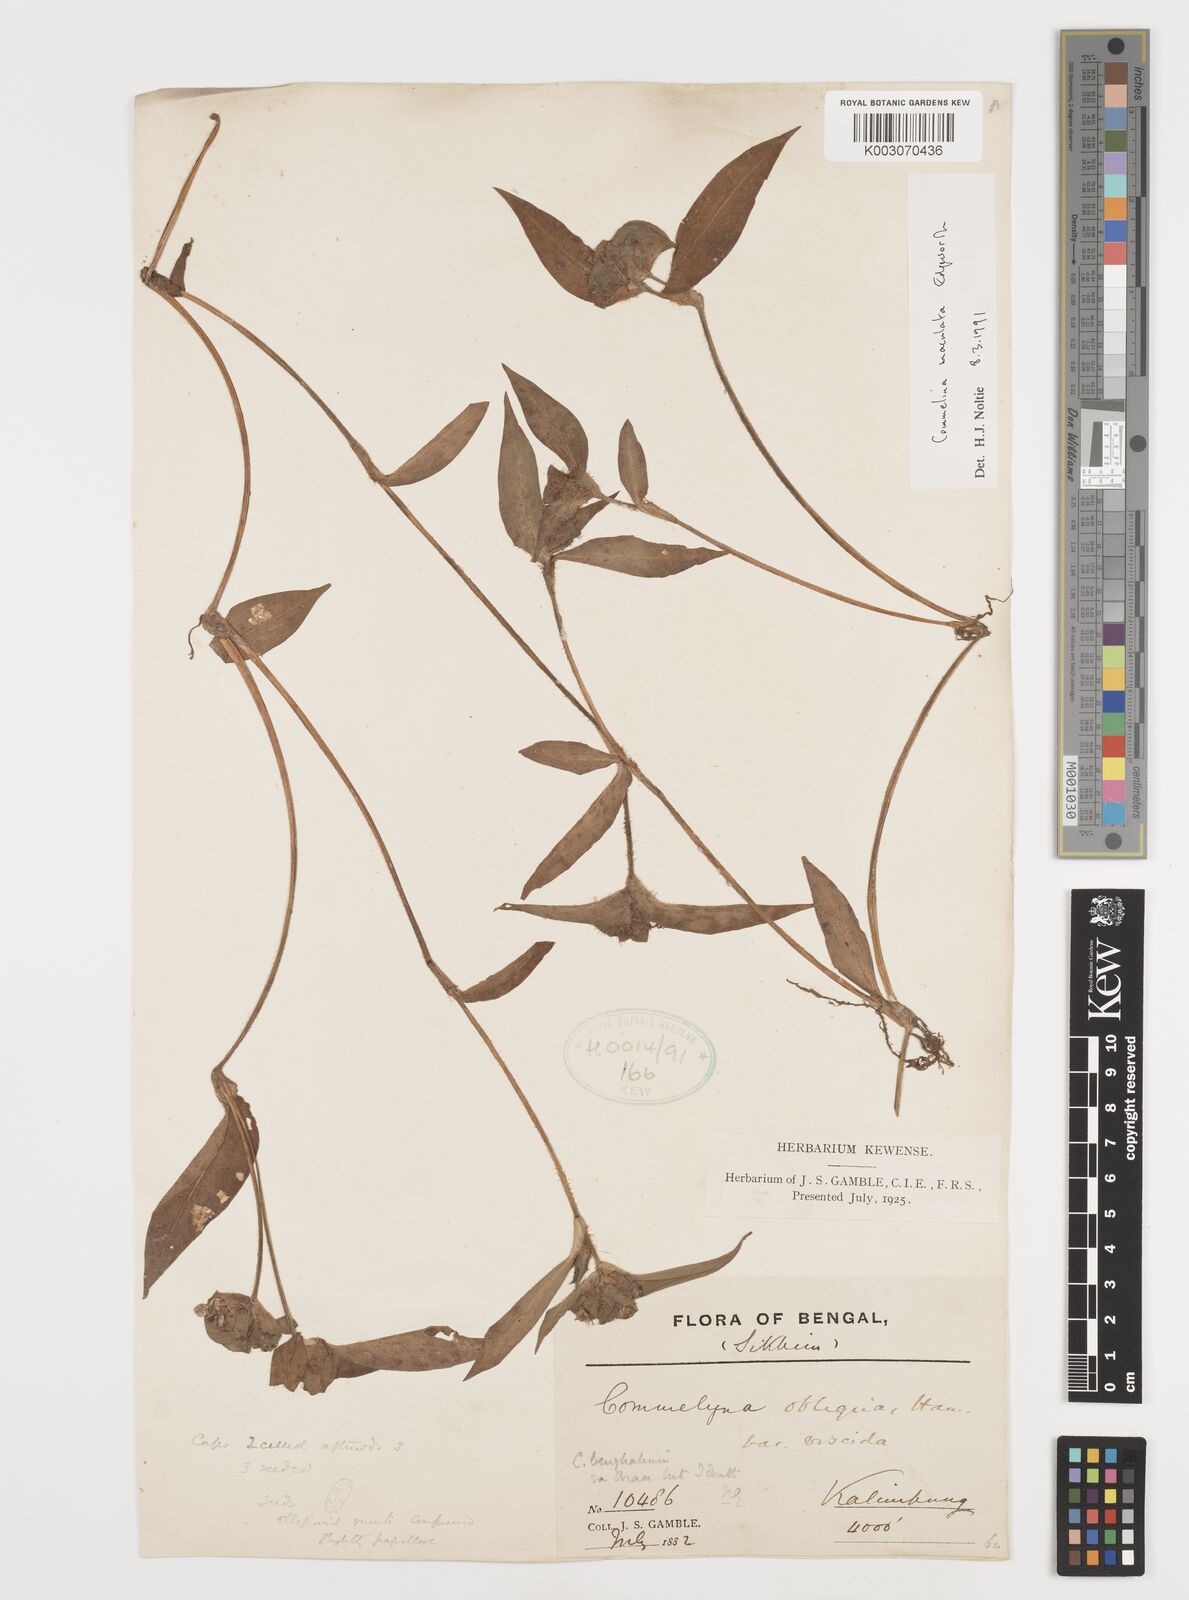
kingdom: Plantae
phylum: Tracheophyta
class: Liliopsida
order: Commelinales
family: Commelinaceae
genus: Commelina
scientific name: Commelina maculata
